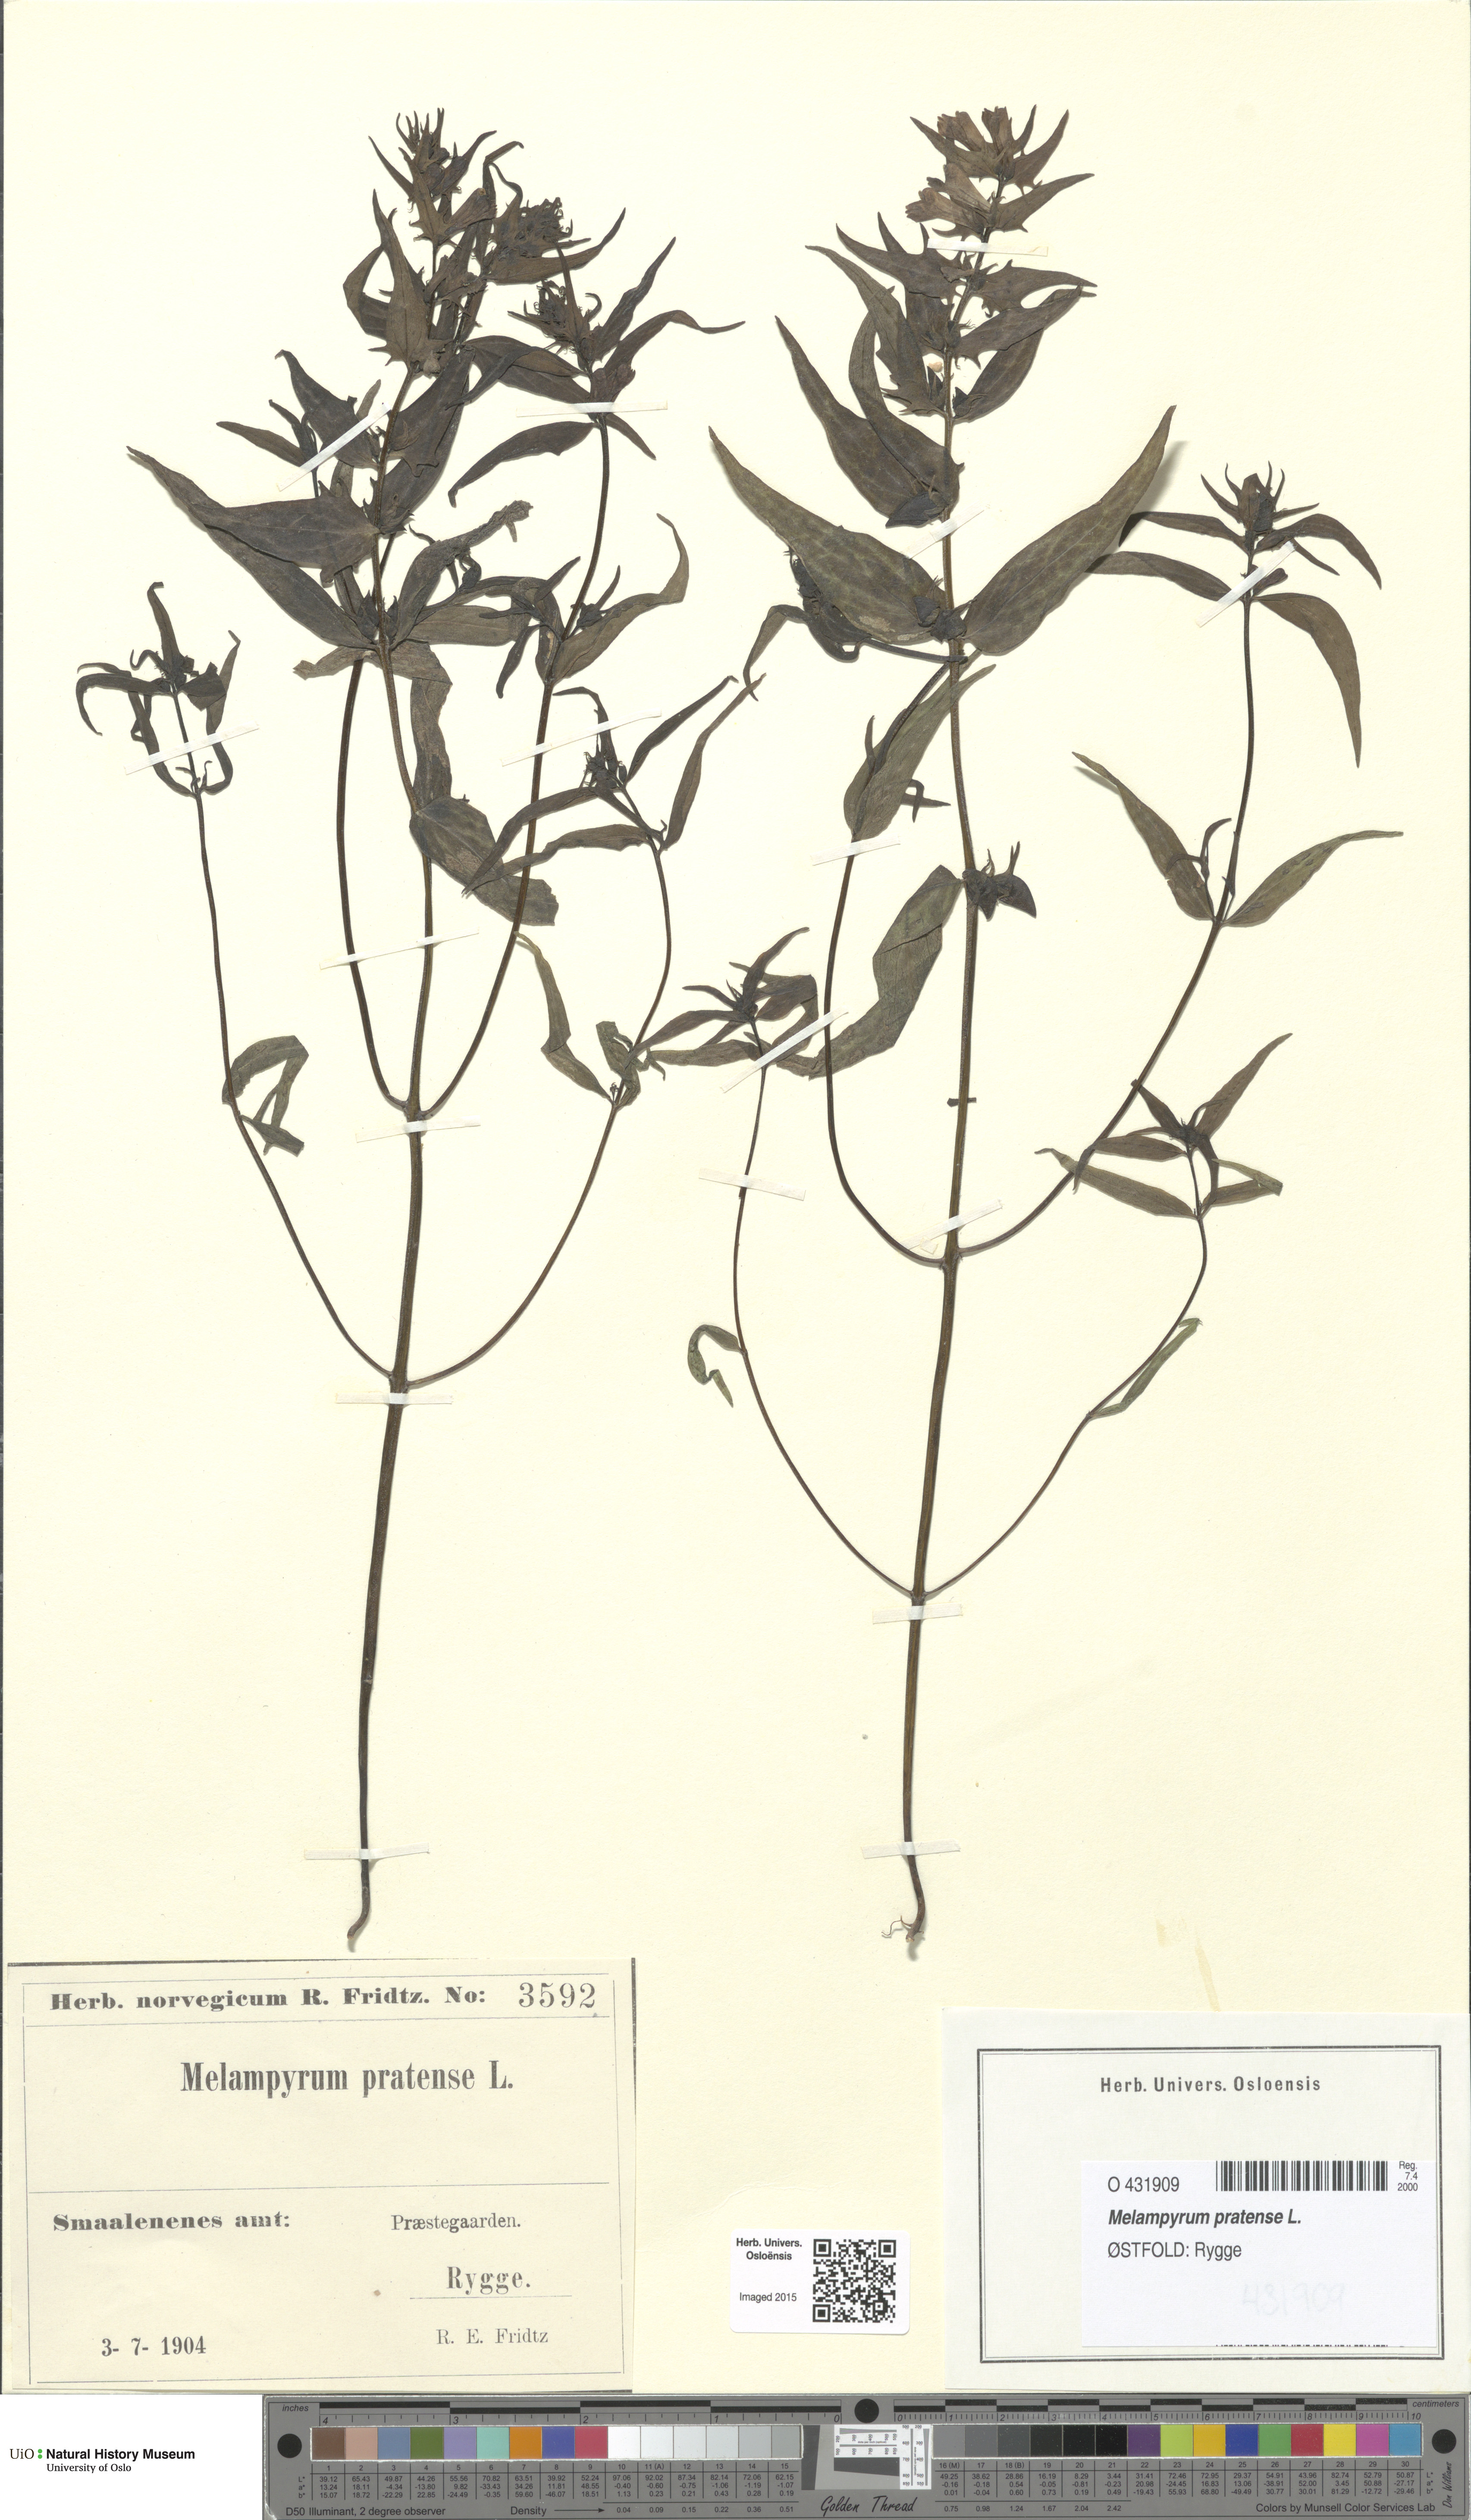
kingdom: Plantae
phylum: Tracheophyta
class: Magnoliopsida
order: Lamiales
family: Orobanchaceae
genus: Melampyrum
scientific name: Melampyrum pratense
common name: Common cow-wheat
